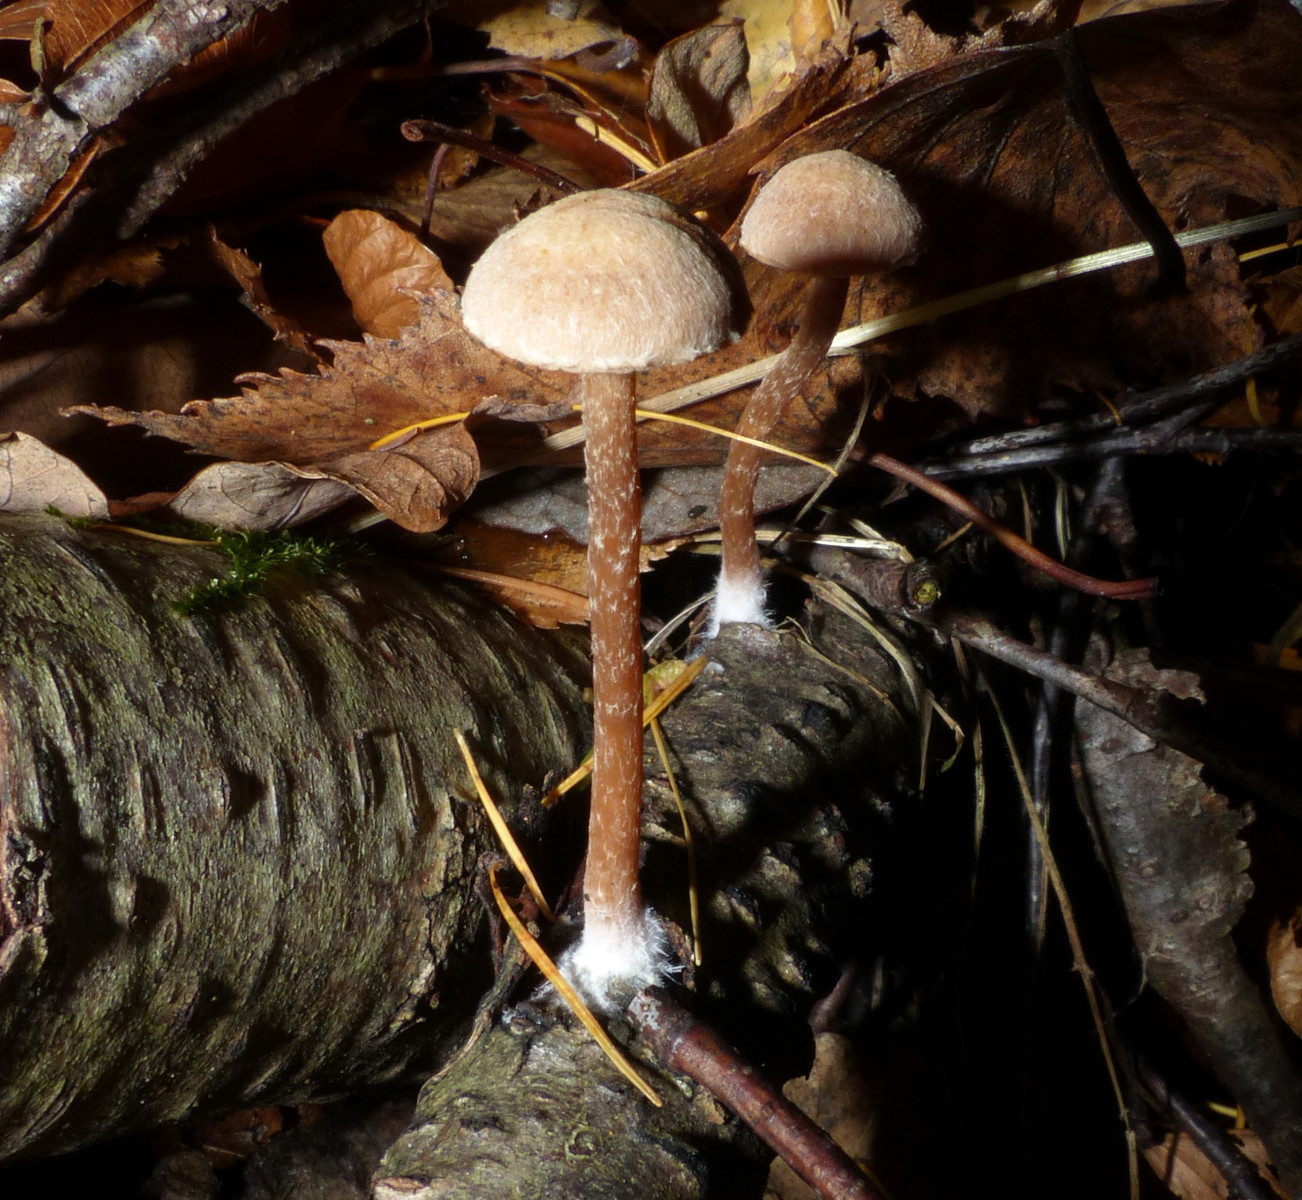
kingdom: Fungi
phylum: Basidiomycota
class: Agaricomycetes
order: Agaricales
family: Tubariaceae
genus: Tubaria
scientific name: Tubaria conspersa
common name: bleg fnughat
